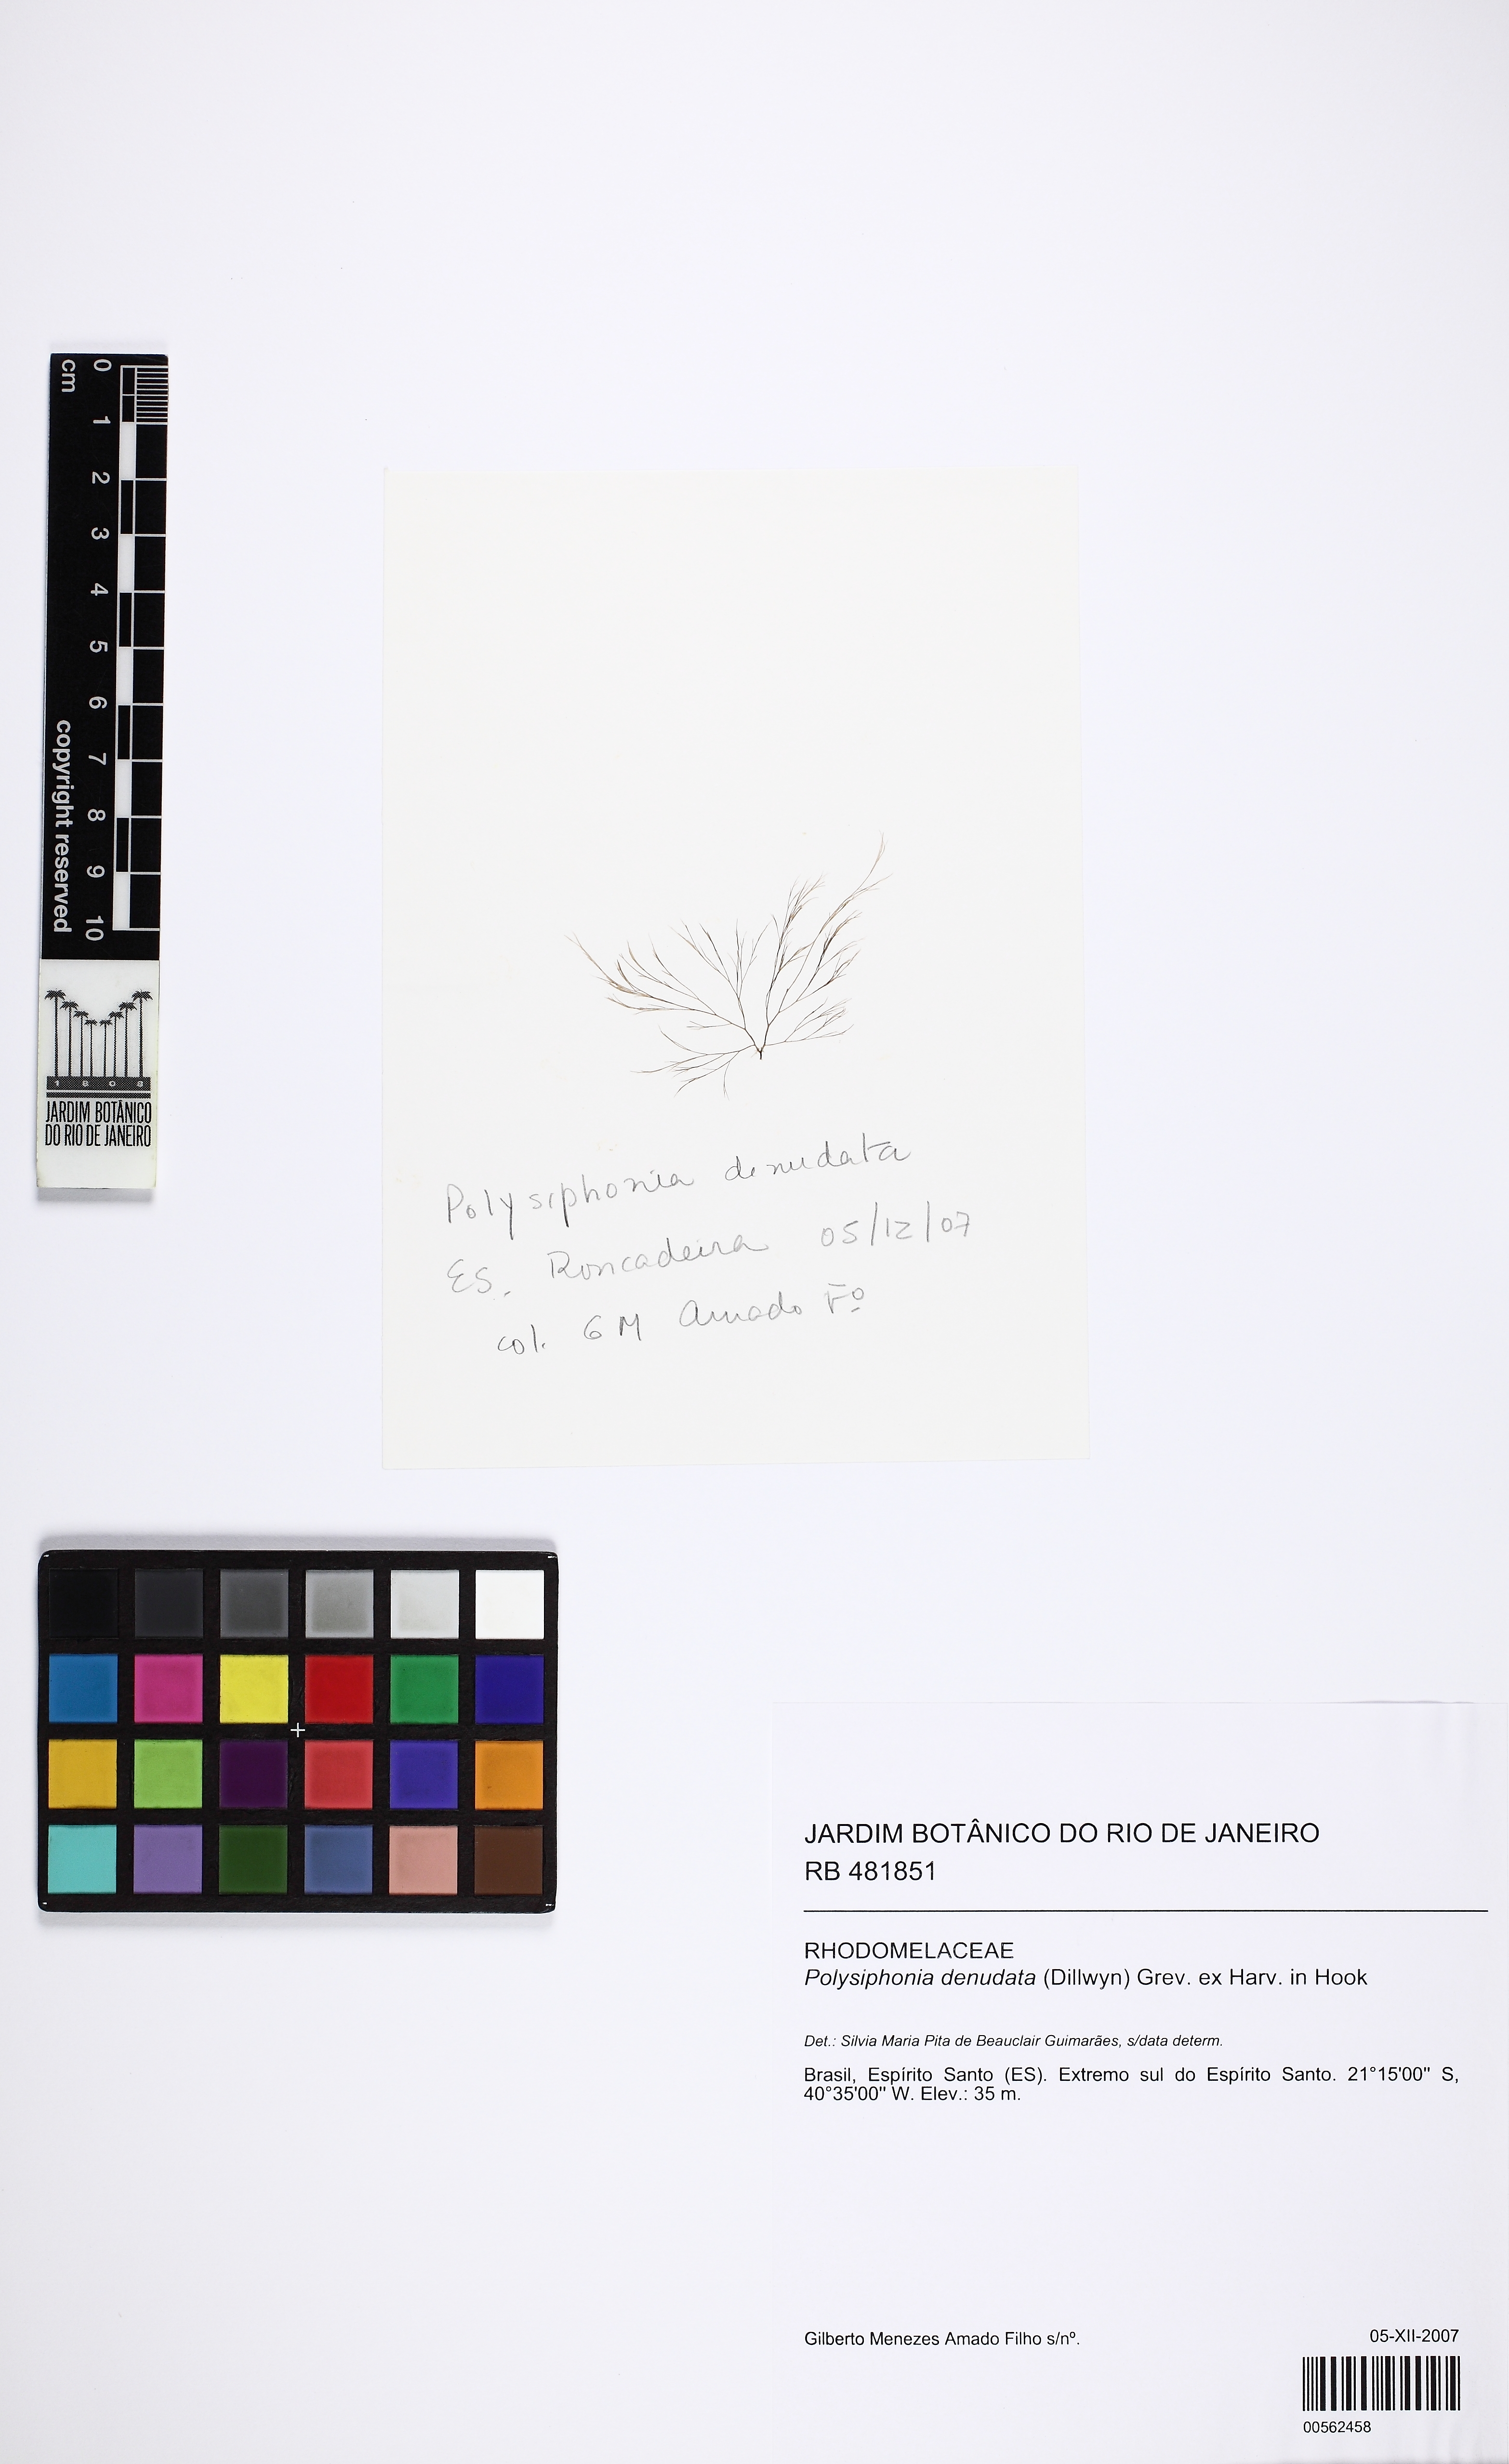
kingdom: Plantae
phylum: Rhodophyta
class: Florideophyceae
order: Ceramiales
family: Rhodomelaceae
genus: Polysiphonia
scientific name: Polysiphonia denudata
